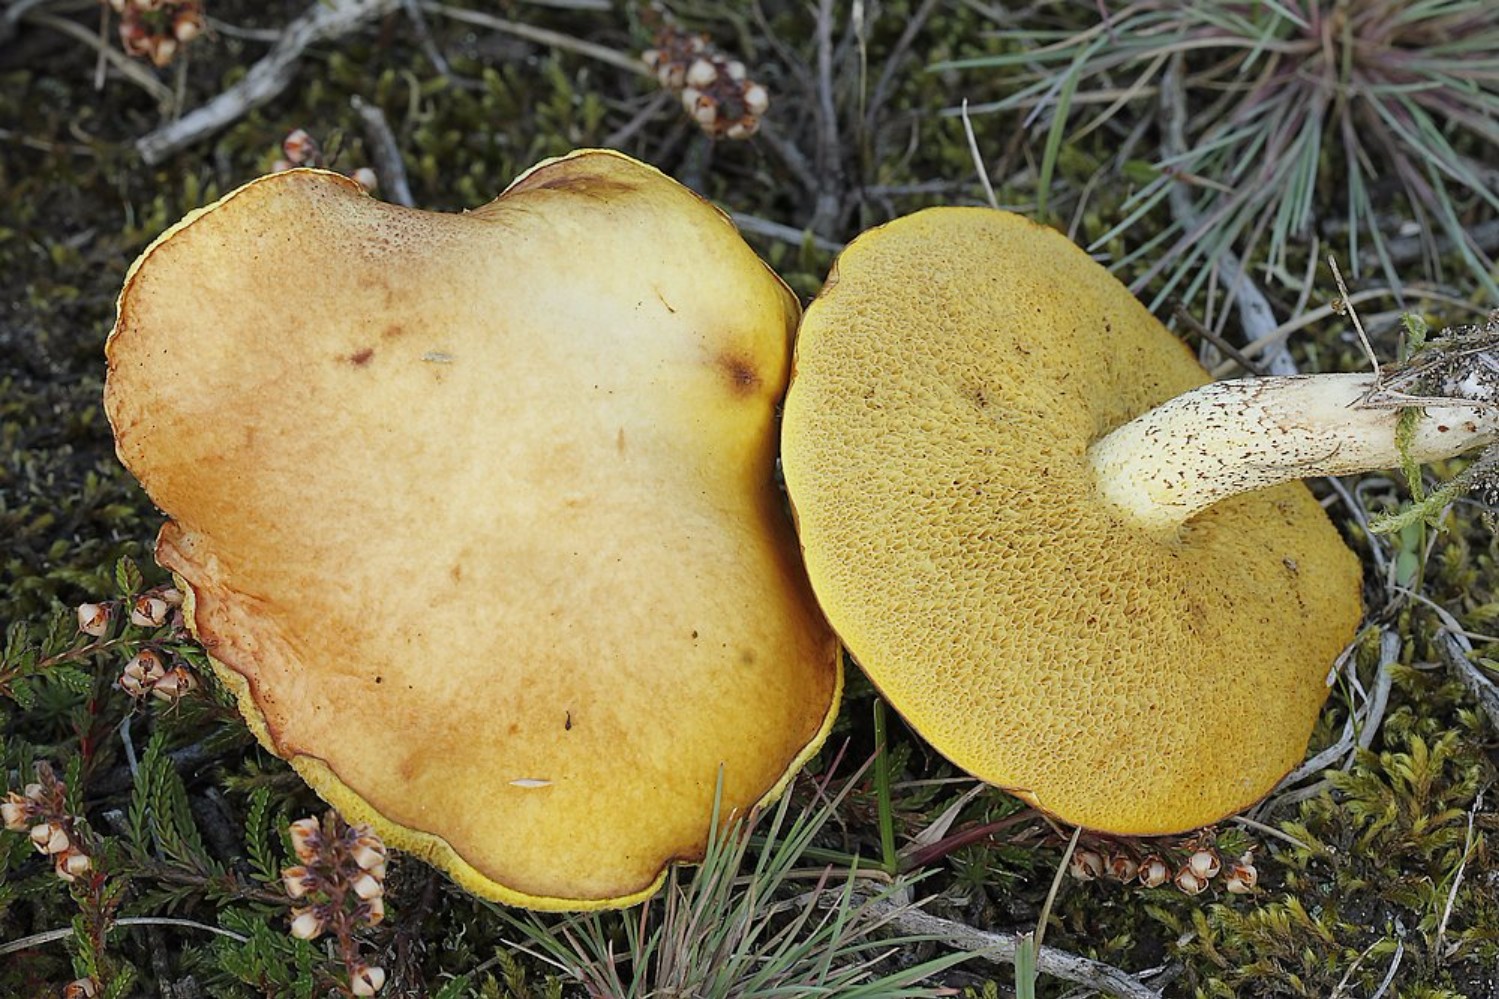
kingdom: Fungi
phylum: Basidiomycota
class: Agaricomycetes
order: Boletales
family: Suillaceae
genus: Suillus
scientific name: Suillus granulatus
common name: kornet slimrørhat
